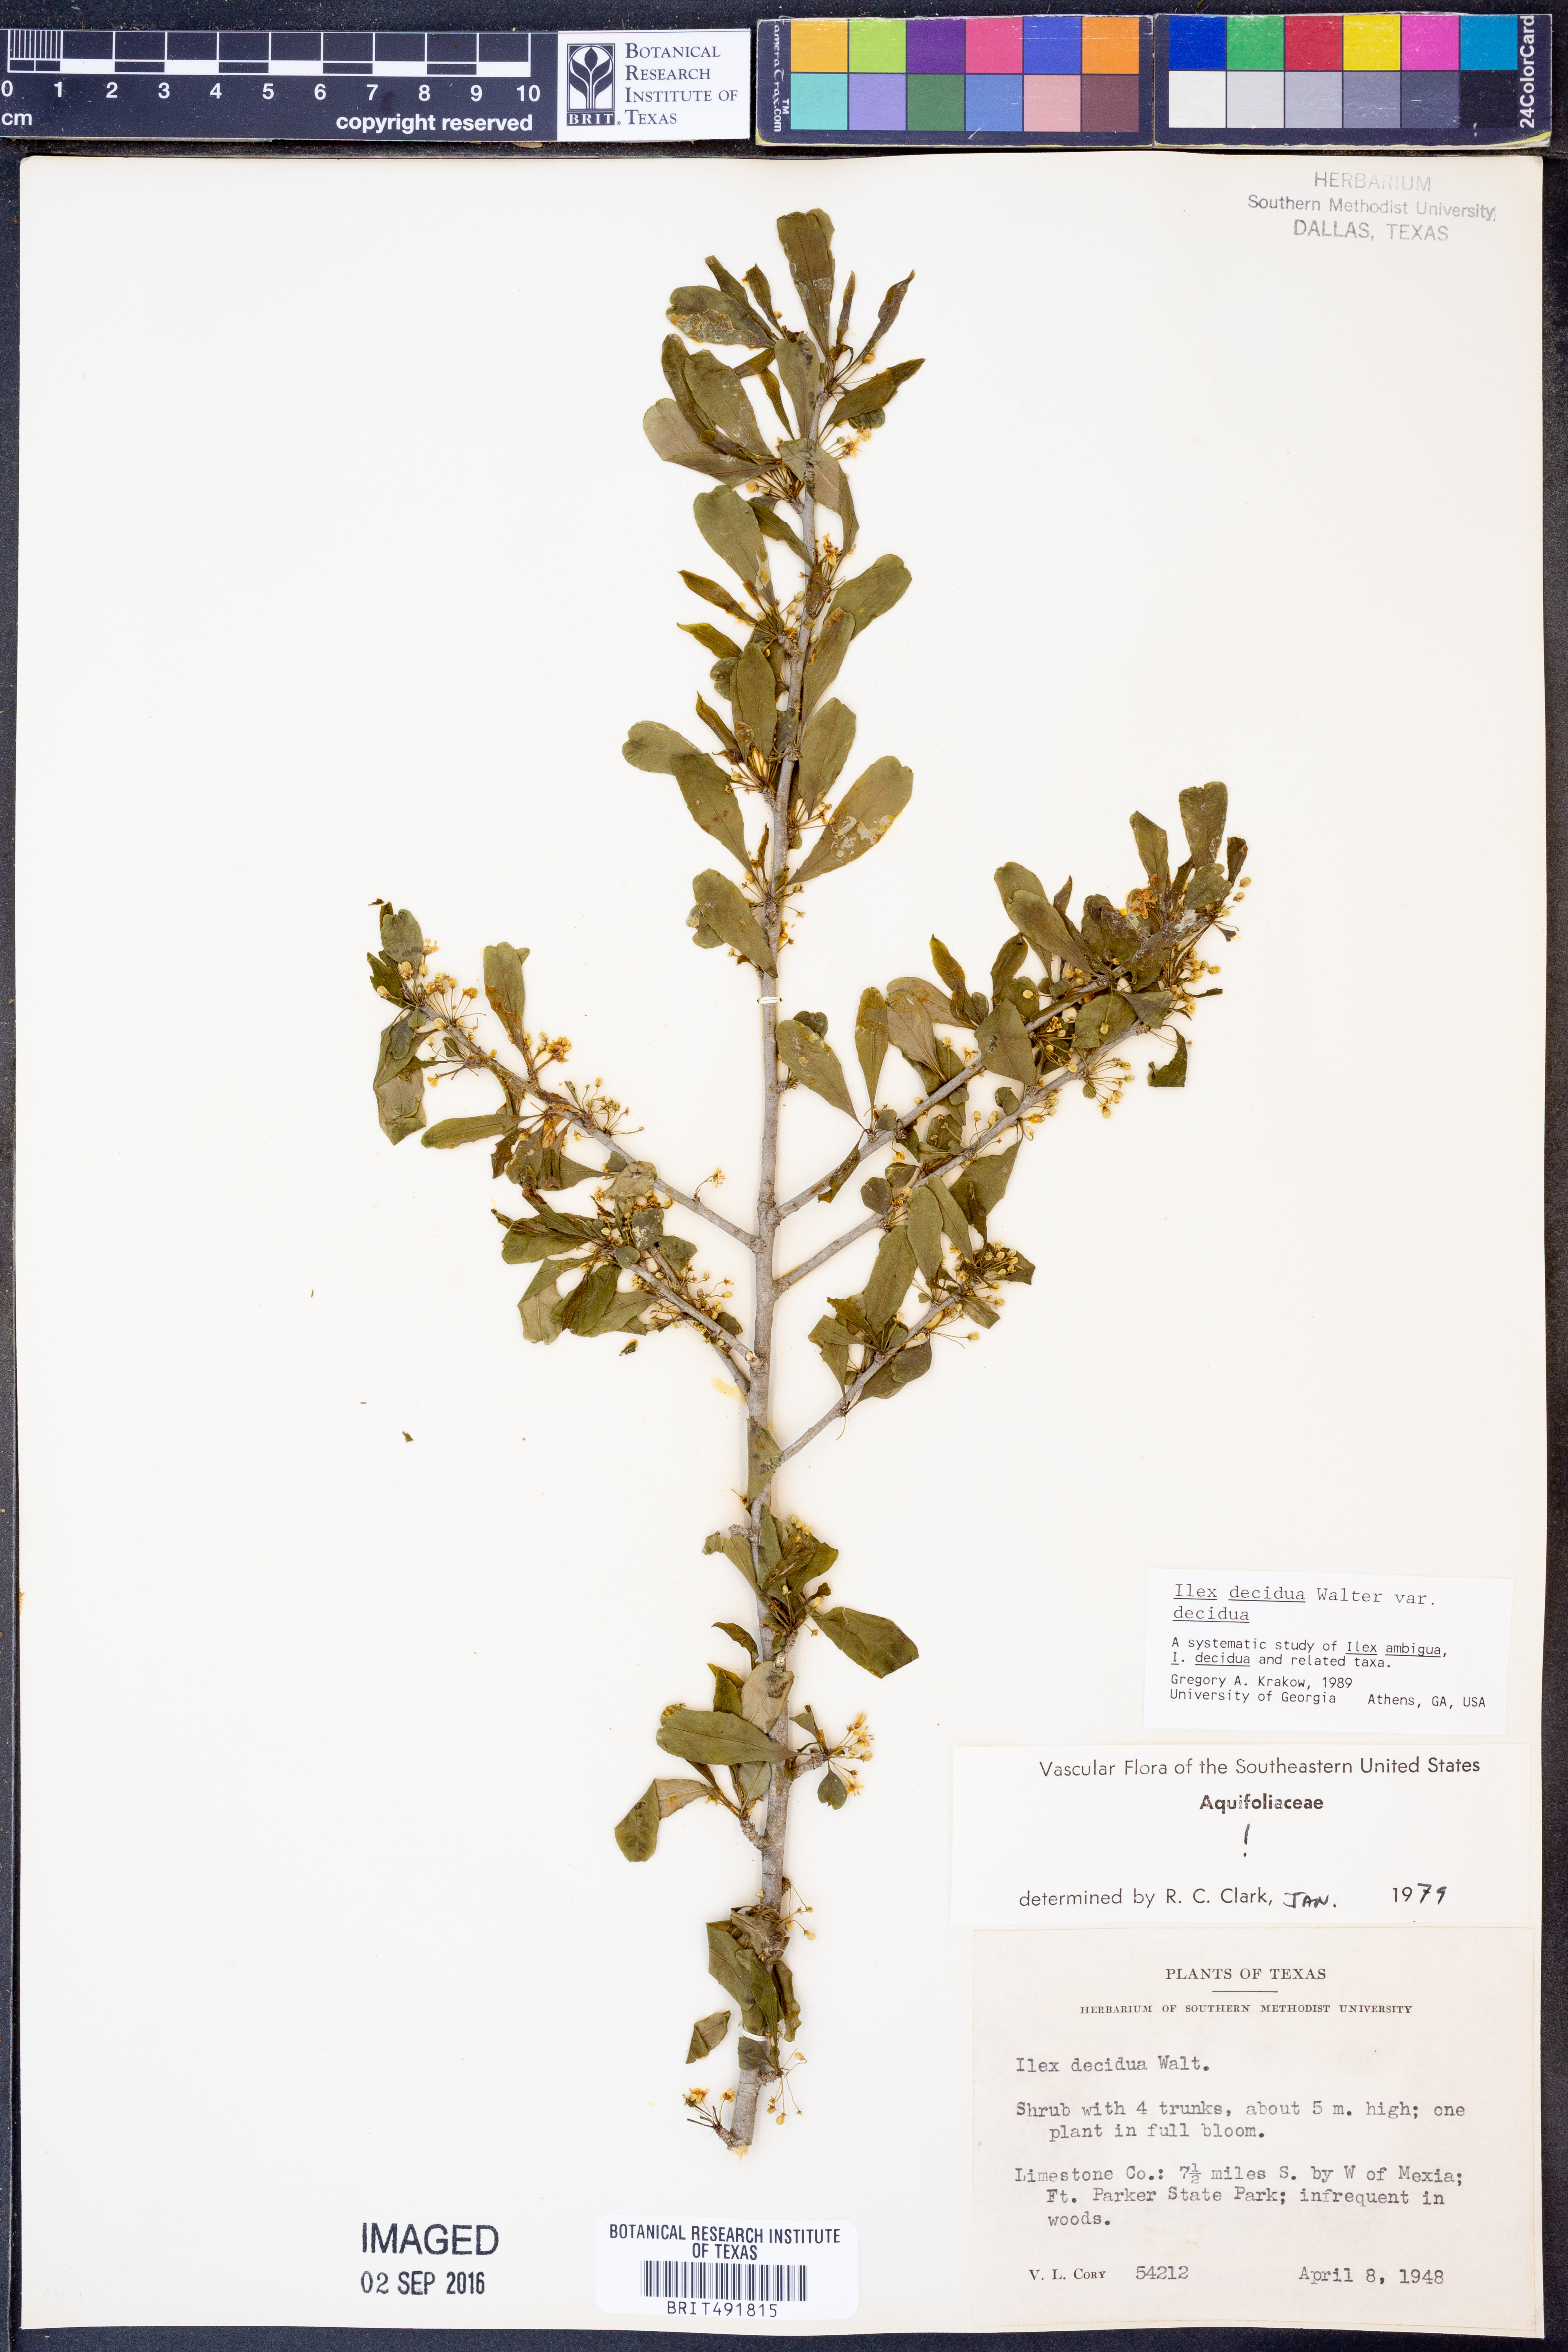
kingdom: Plantae
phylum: Tracheophyta
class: Magnoliopsida
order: Aquifoliales
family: Aquifoliaceae
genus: Ilex
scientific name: Ilex decidua
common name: Possum-haw
